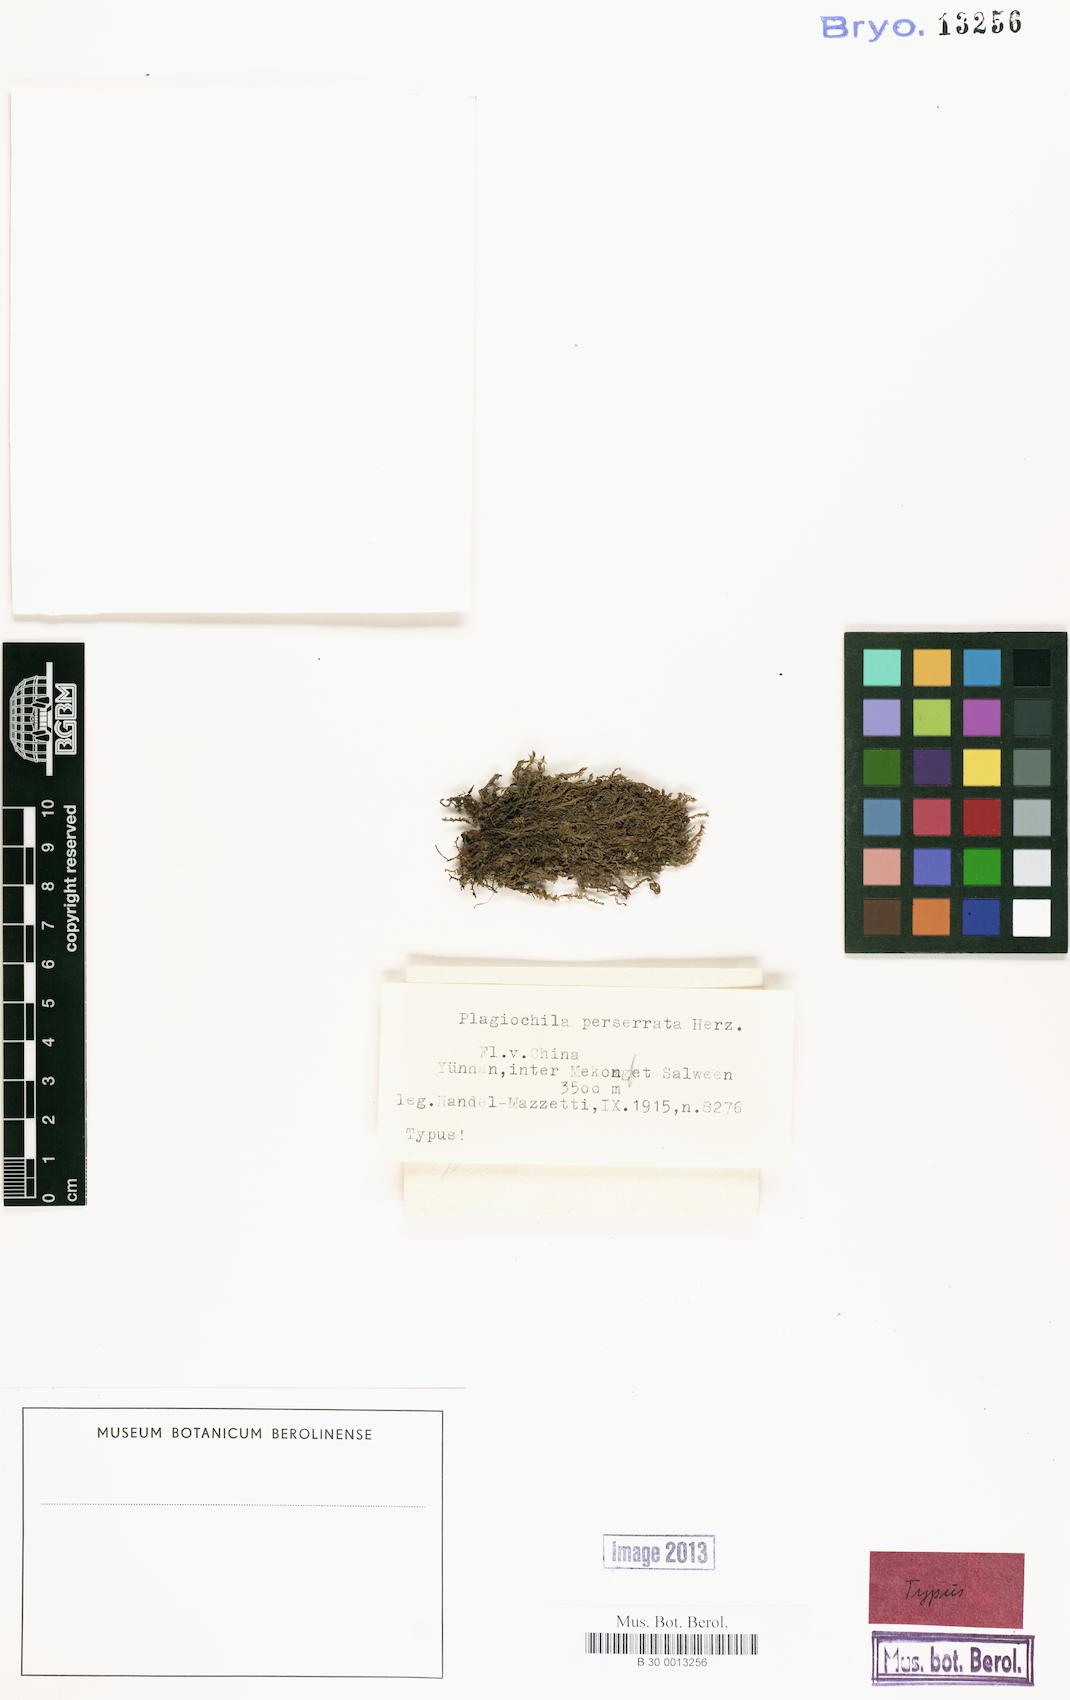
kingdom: Plantae
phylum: Marchantiophyta
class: Jungermanniopsida
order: Jungermanniales
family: Plagiochilaceae
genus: Plagiochila
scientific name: Plagiochila perserrata
